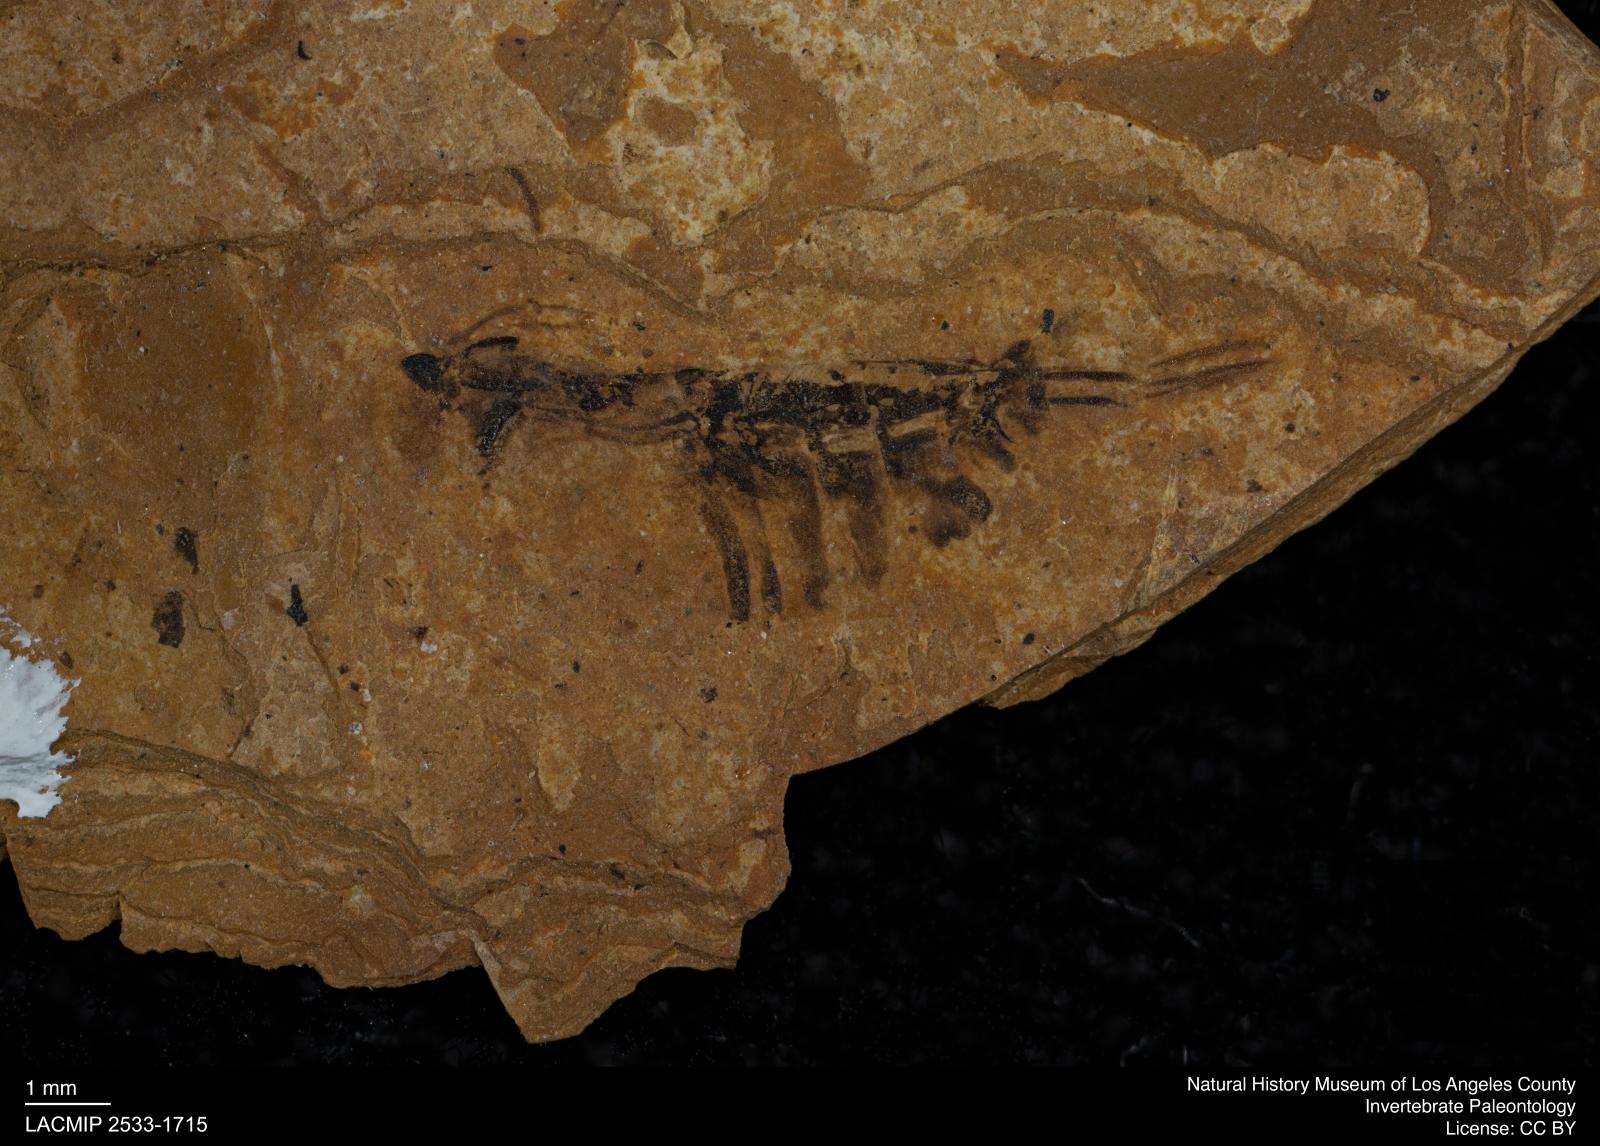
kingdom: Animalia
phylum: Arthropoda
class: Insecta
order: Hemiptera
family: Notonectidae
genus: Notonecta
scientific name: Notonecta
